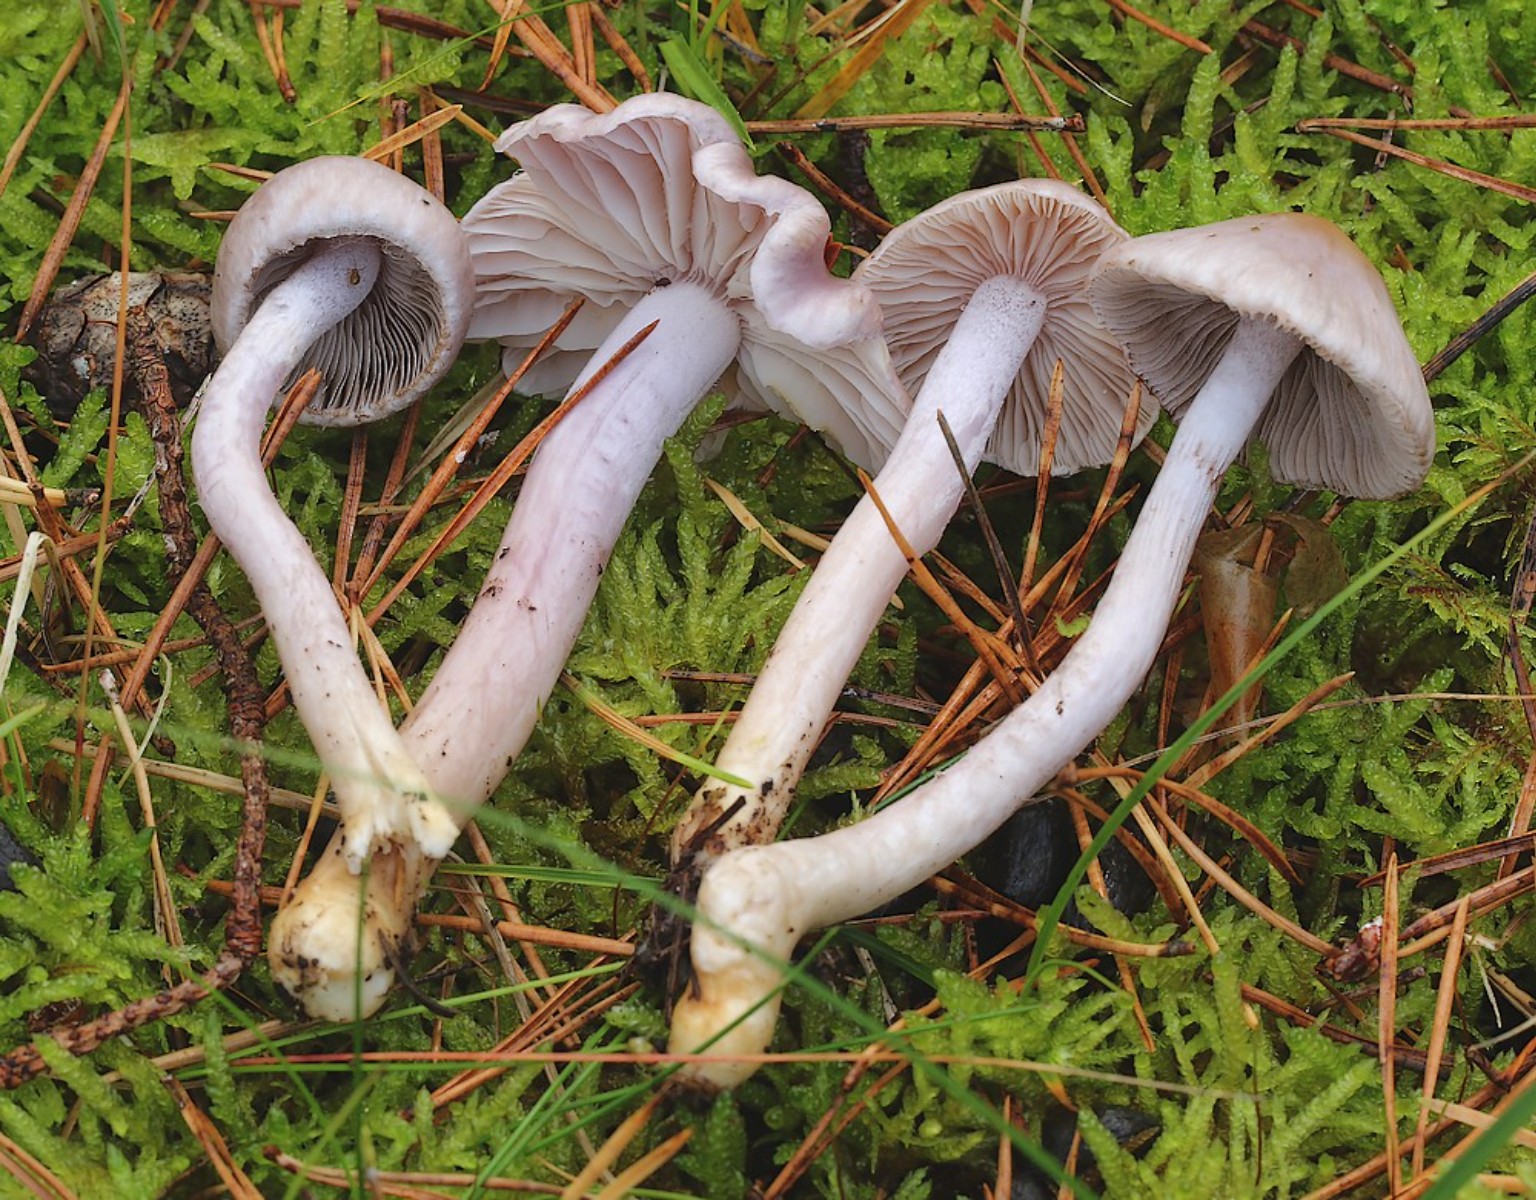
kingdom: Fungi
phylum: Basidiomycota
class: Agaricomycetes
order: Agaricales
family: Inocybaceae
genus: Inocybe
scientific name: Inocybe geophylla
